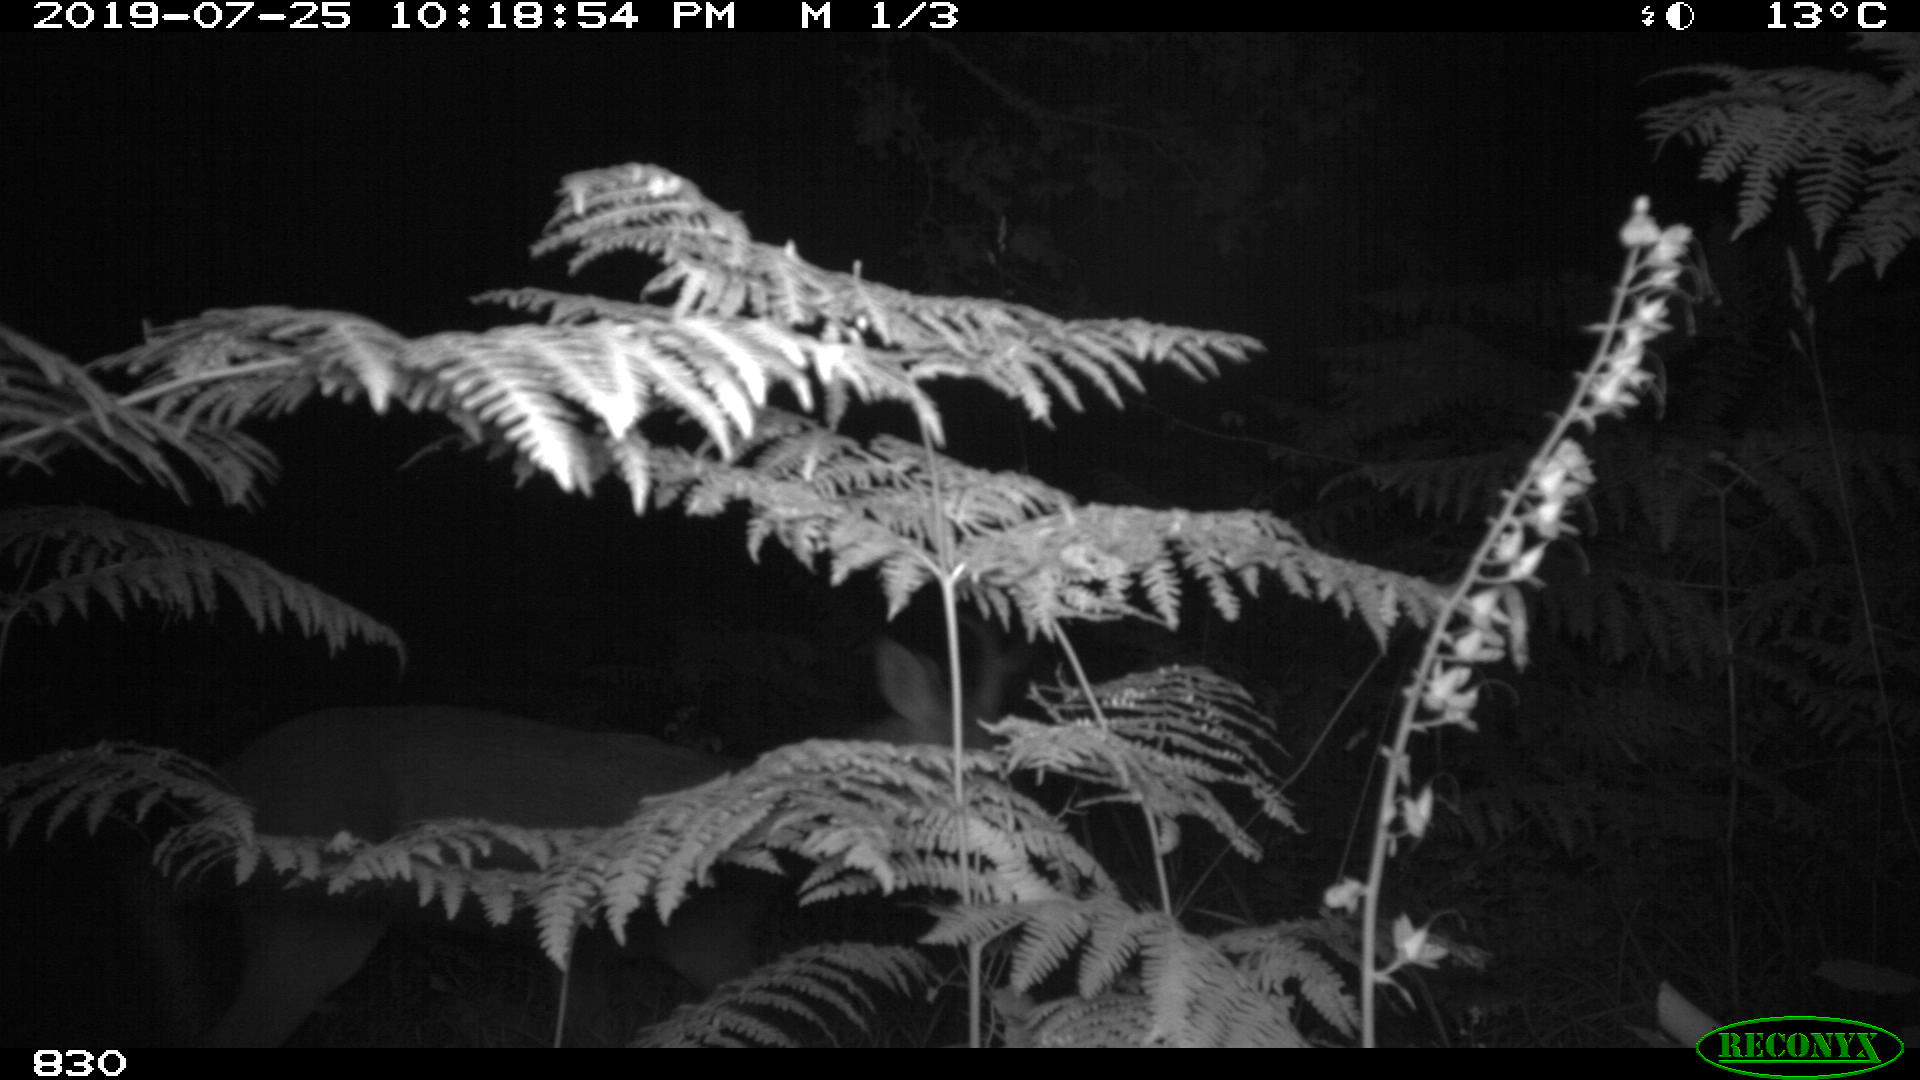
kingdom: Animalia
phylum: Chordata
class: Mammalia
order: Artiodactyla
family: Cervidae
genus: Capreolus
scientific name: Capreolus capreolus
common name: Western roe deer
